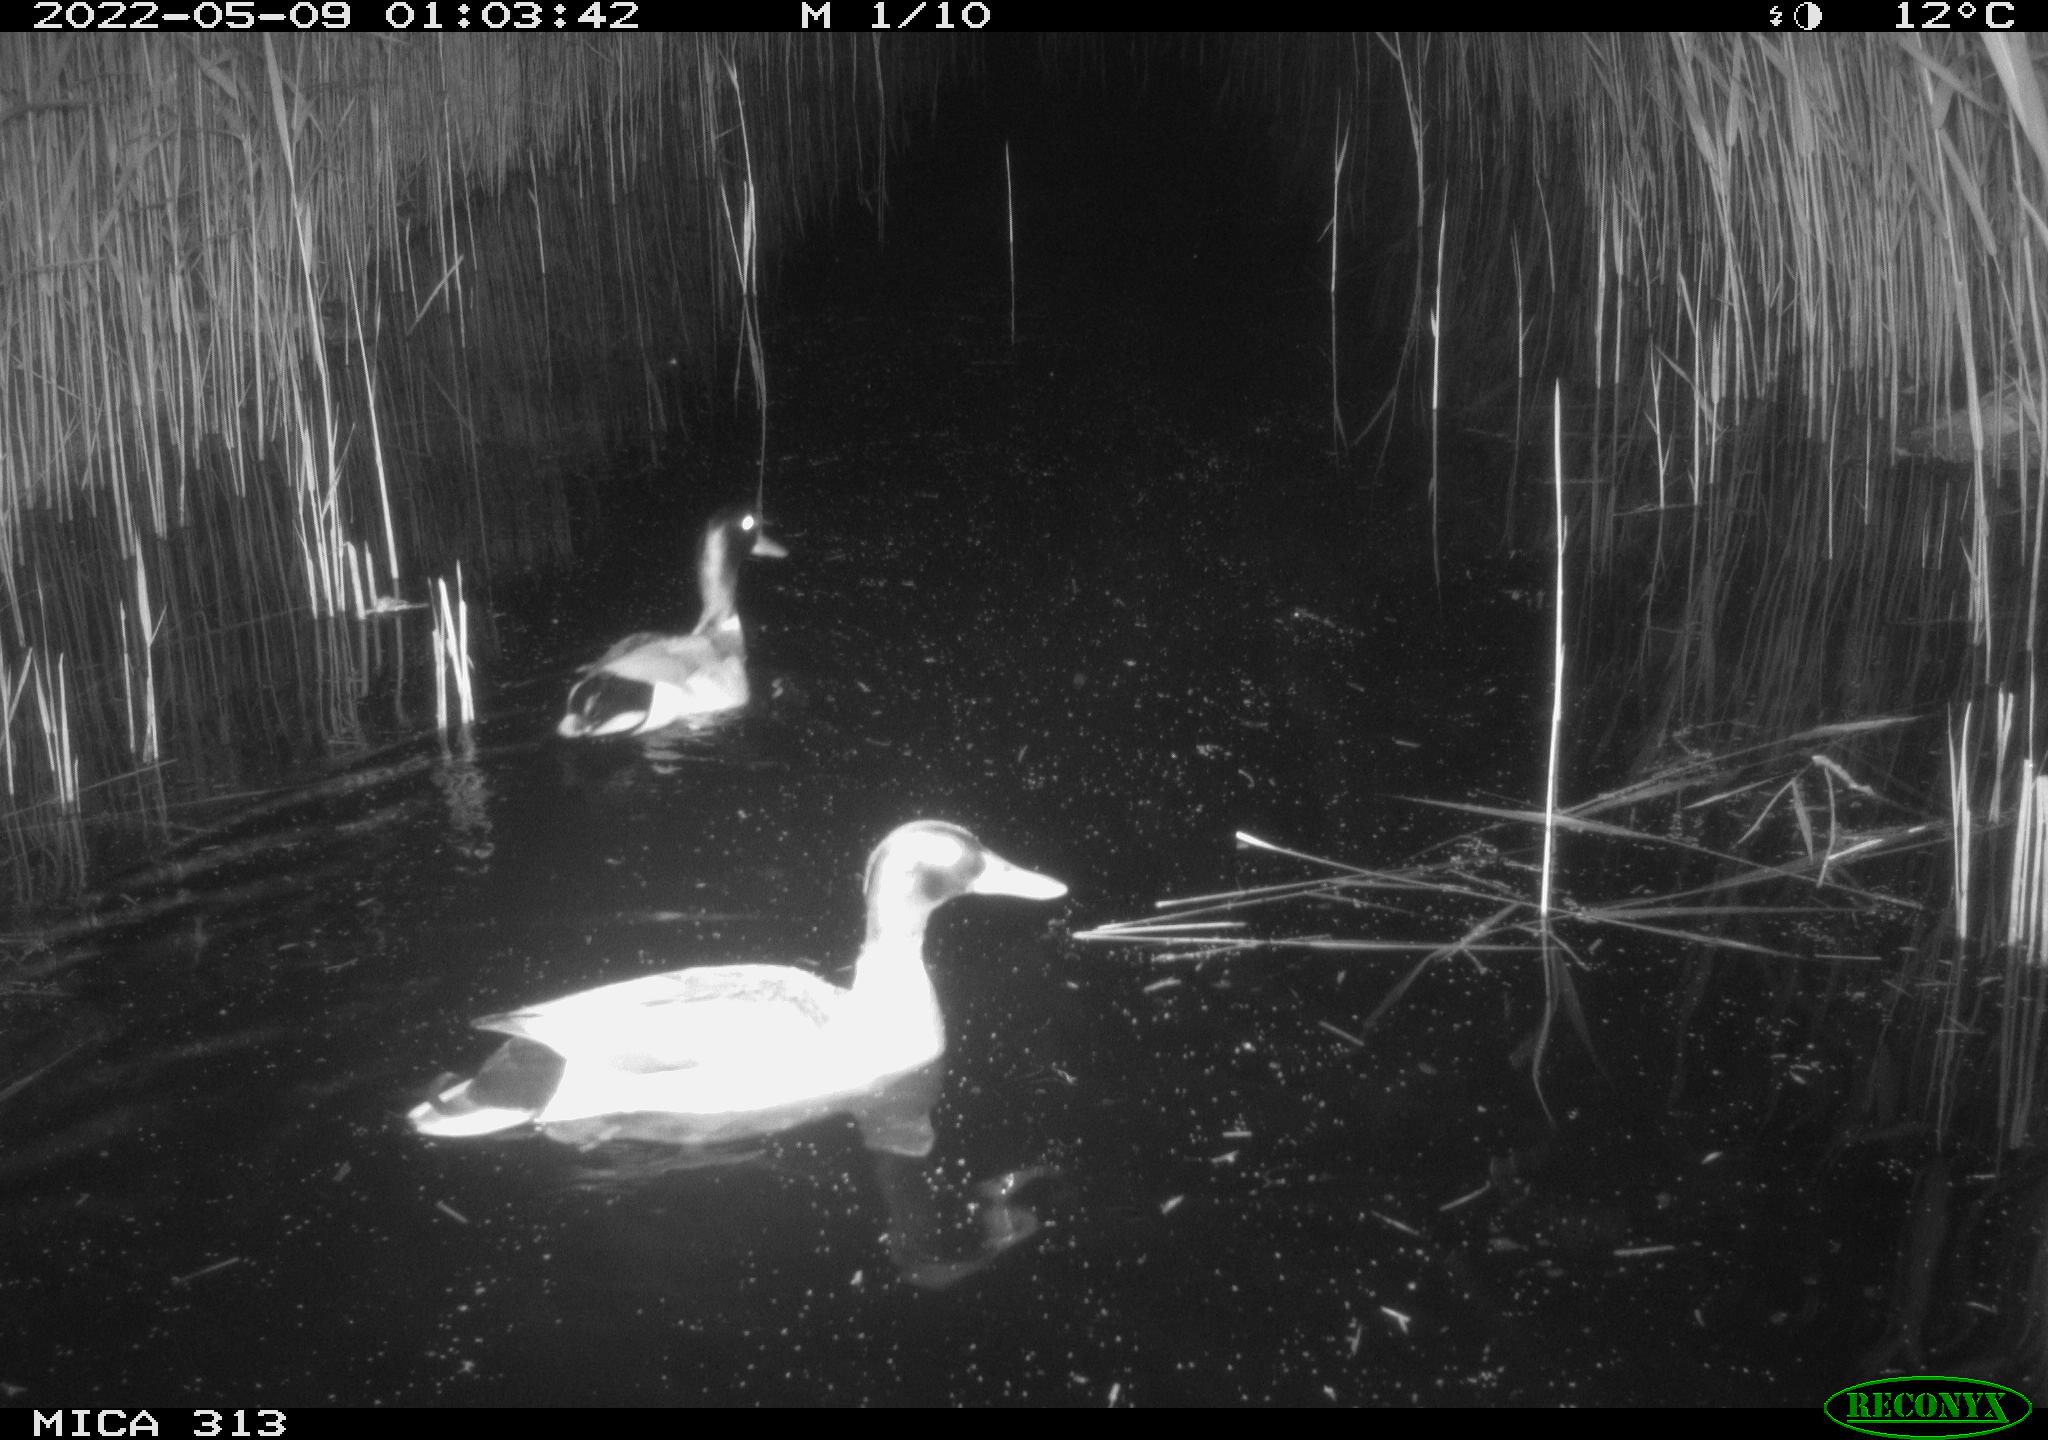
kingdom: Animalia
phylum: Chordata
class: Aves
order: Anseriformes
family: Anatidae
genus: Anas
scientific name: Anas platyrhynchos
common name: Mallard
